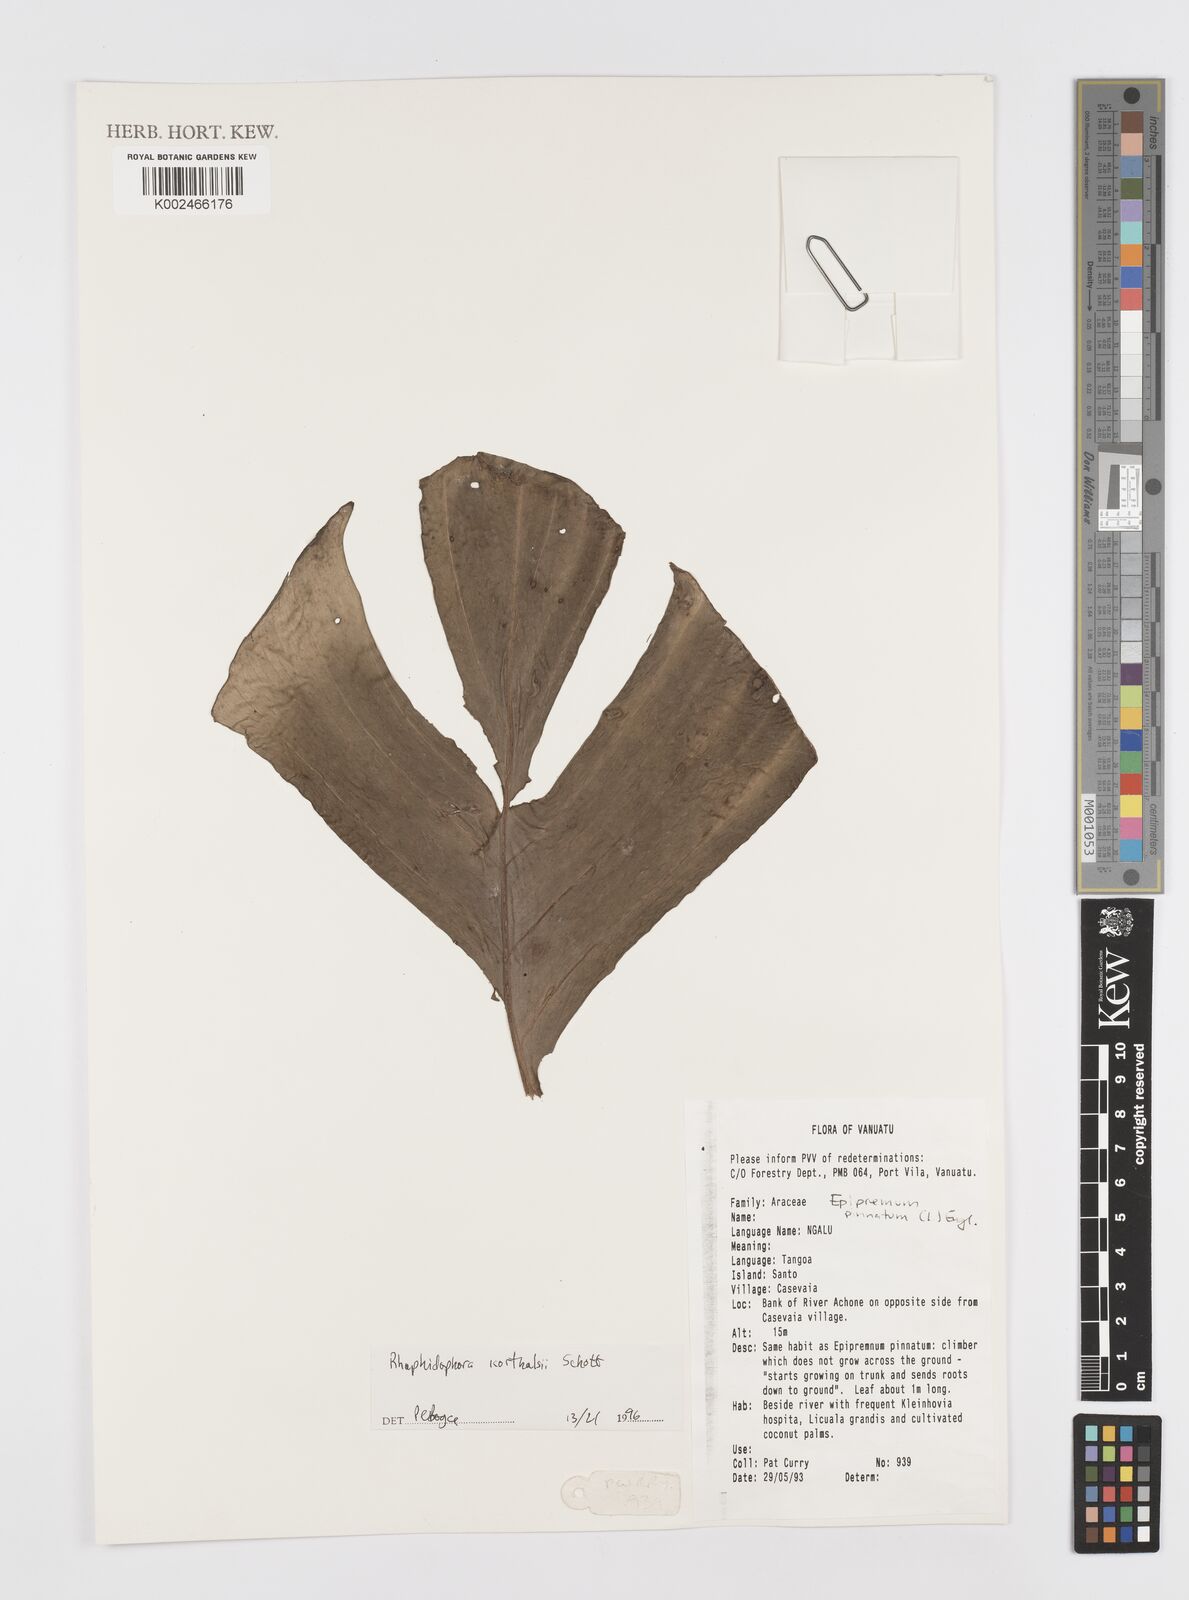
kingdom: Plantae
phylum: Tracheophyta
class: Liliopsida
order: Alismatales
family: Araceae
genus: Rhaphidophora
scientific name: Rhaphidophora korthalsii
